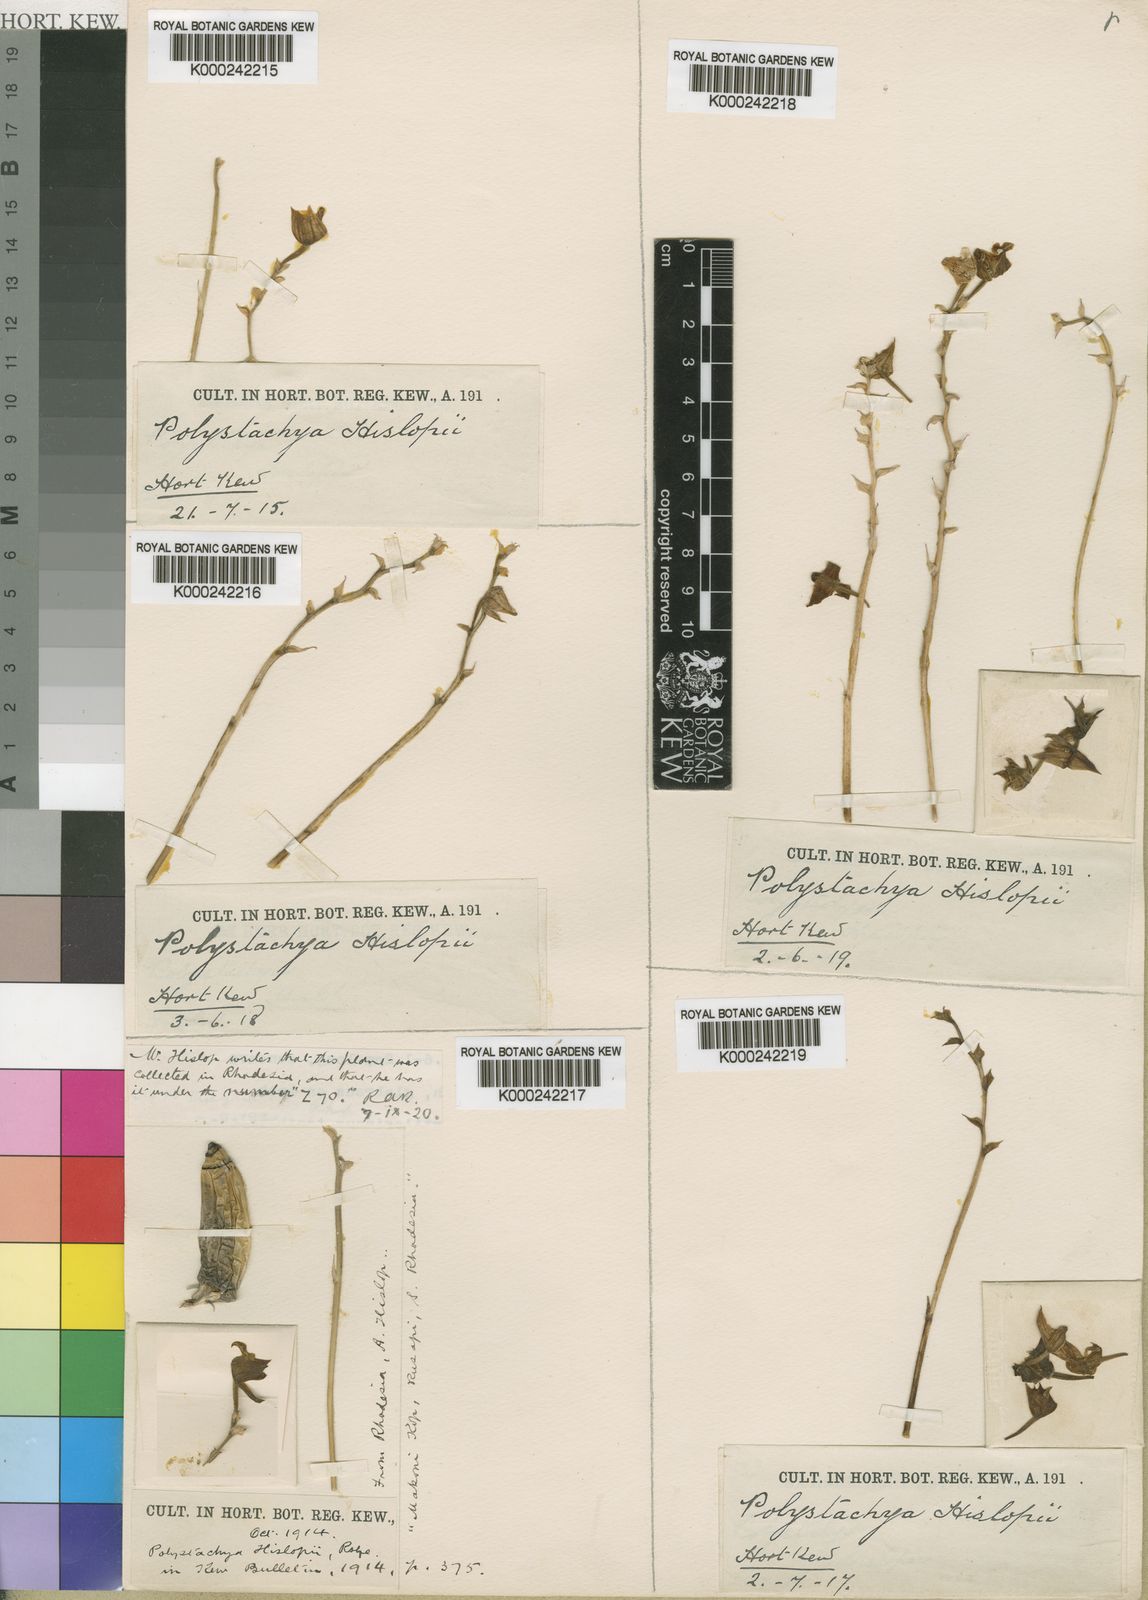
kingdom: Plantae
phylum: Tracheophyta
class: Liliopsida
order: Asparagales
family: Orchidaceae
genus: Polystachya
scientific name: Polystachya zambesiaca
